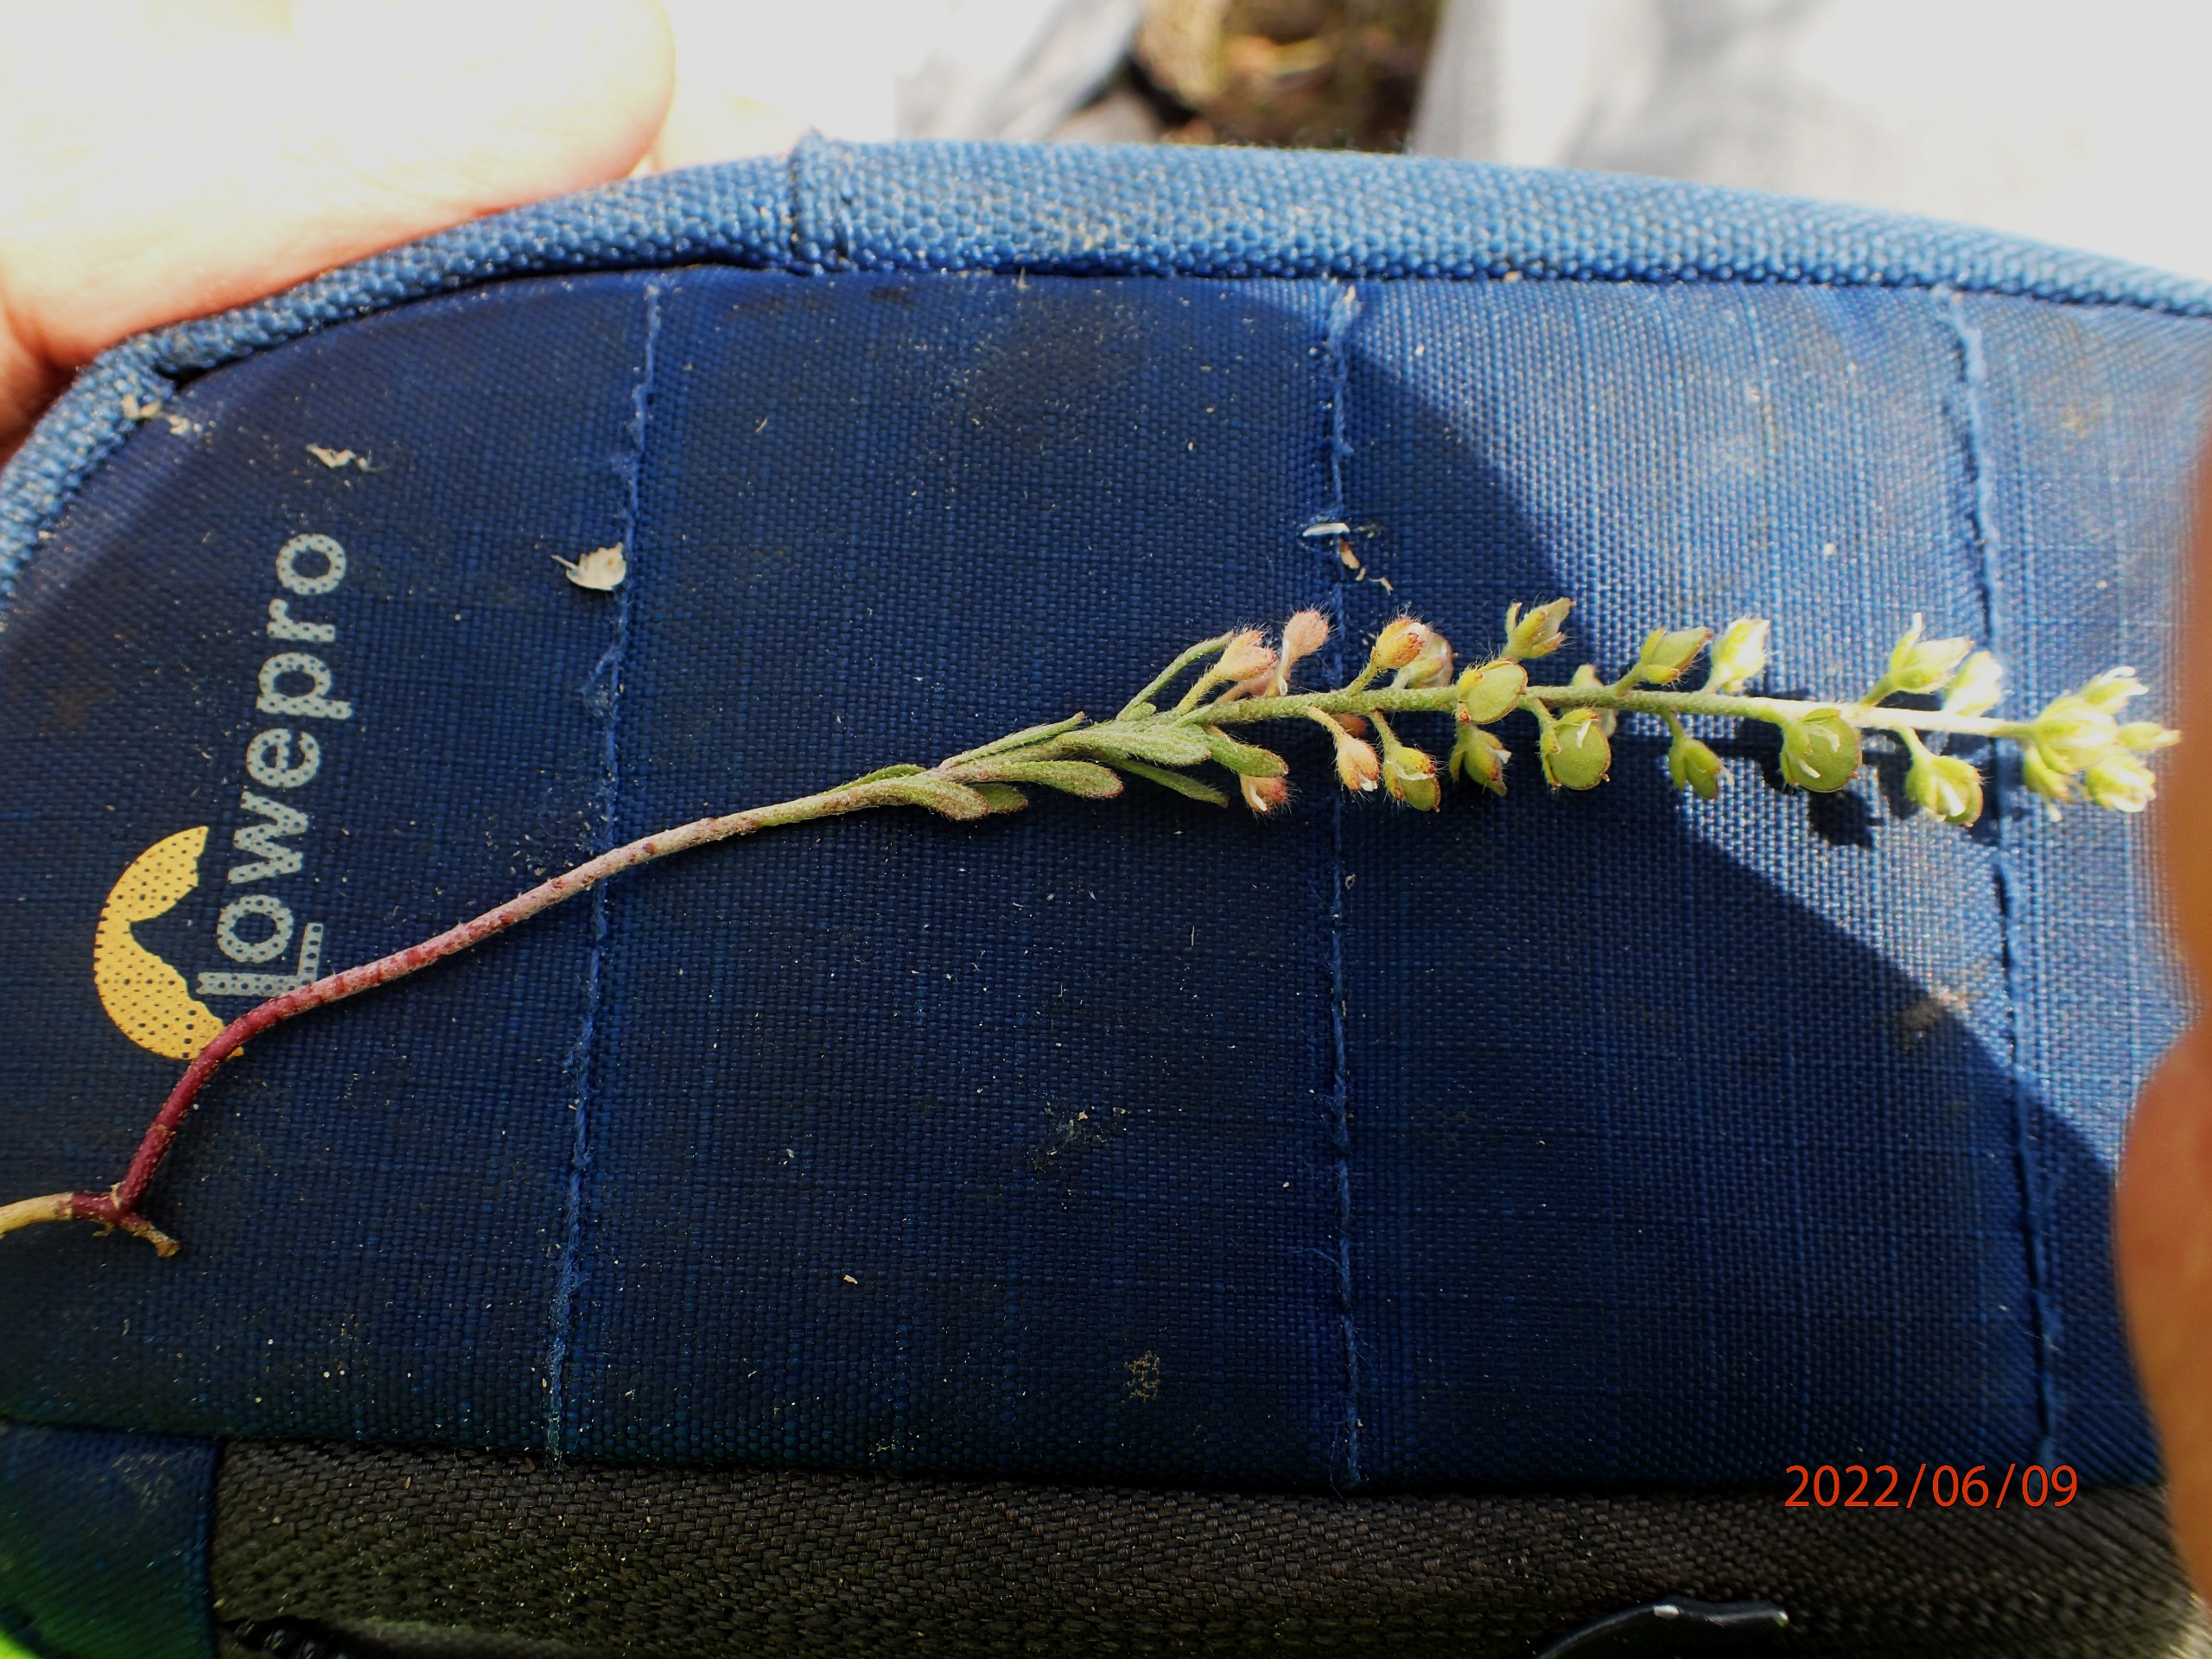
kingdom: Plantae
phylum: Tracheophyta
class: Magnoliopsida
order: Brassicales
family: Brassicaceae
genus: Alyssum
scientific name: Alyssum alyssoides
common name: Grådodder
